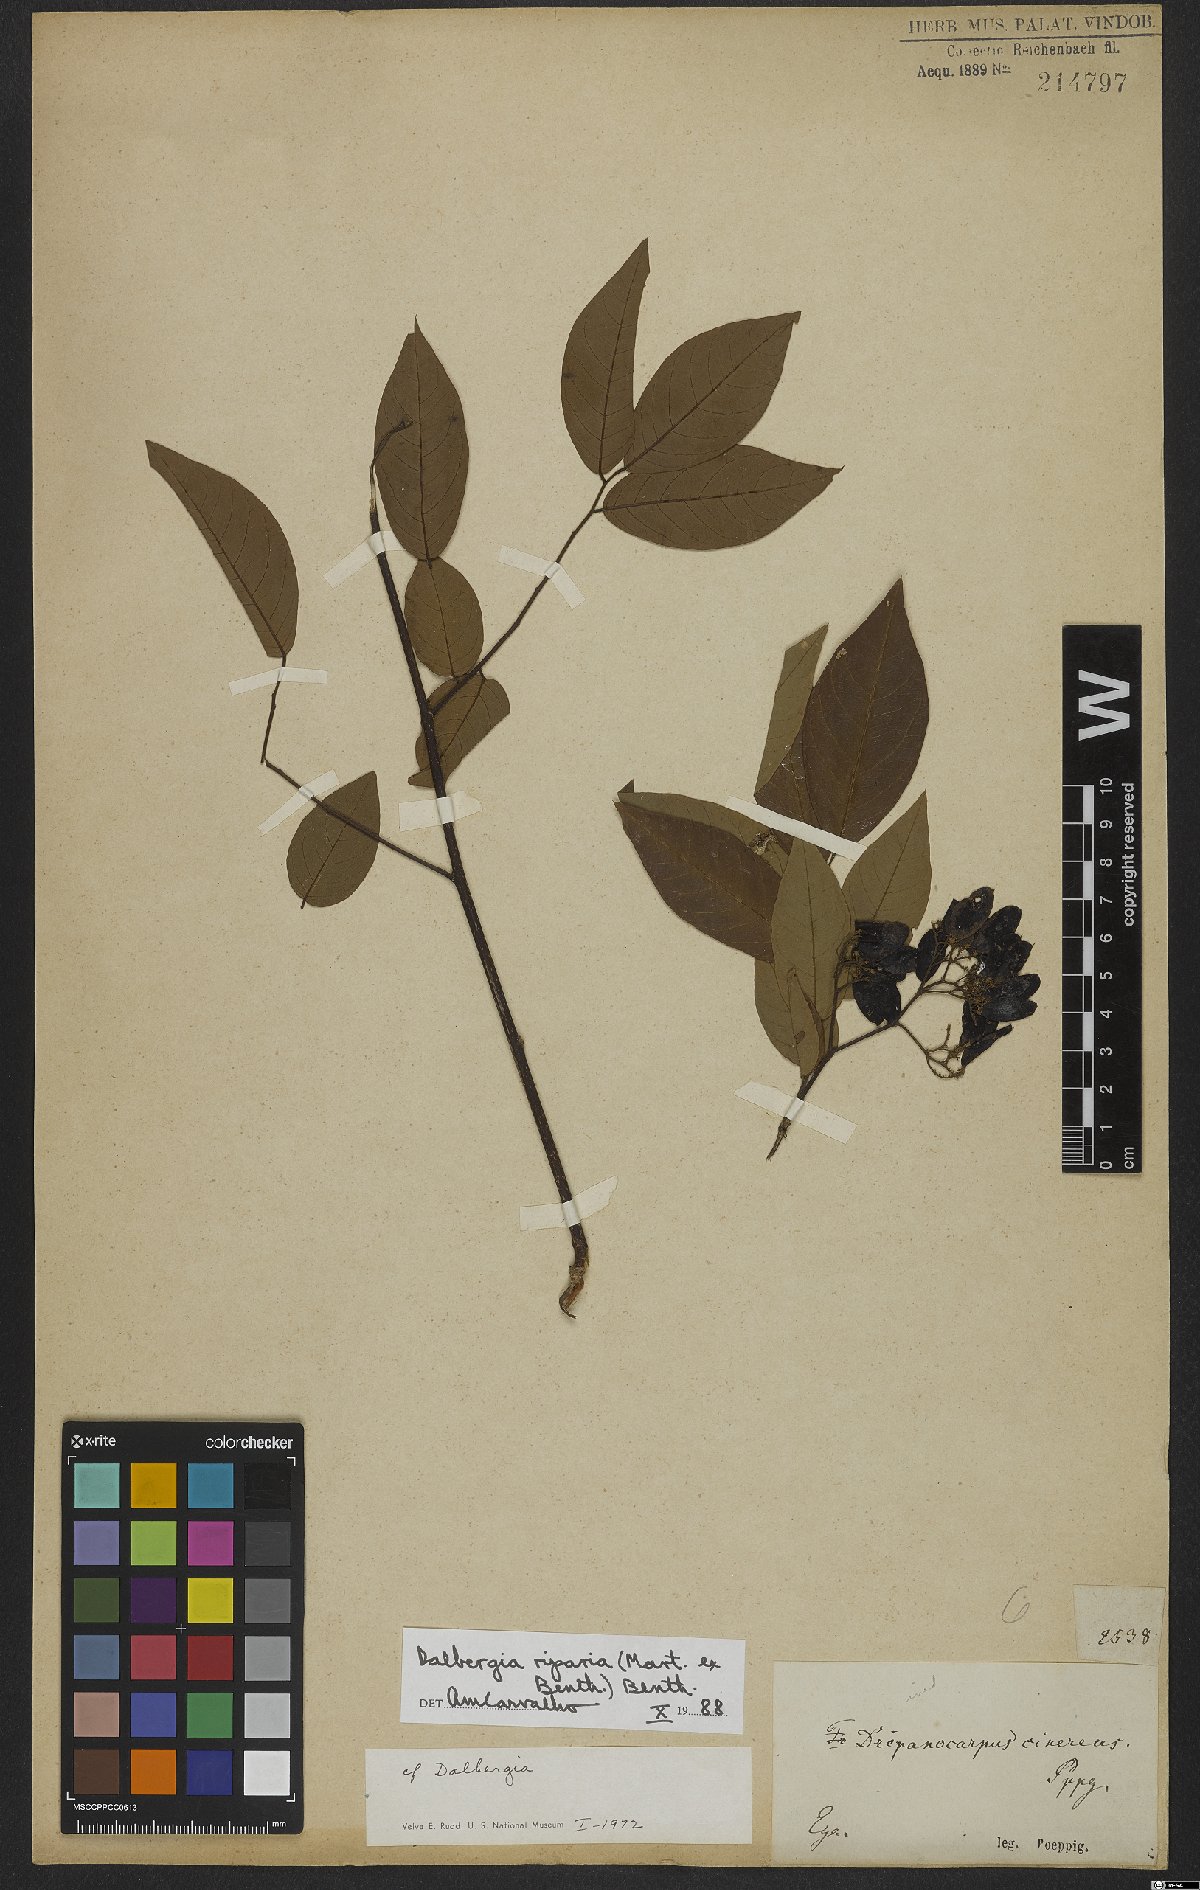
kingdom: Plantae
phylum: Tracheophyta
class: Magnoliopsida
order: Fabales
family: Fabaceae
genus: Dalbergia
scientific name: Dalbergia riparia
